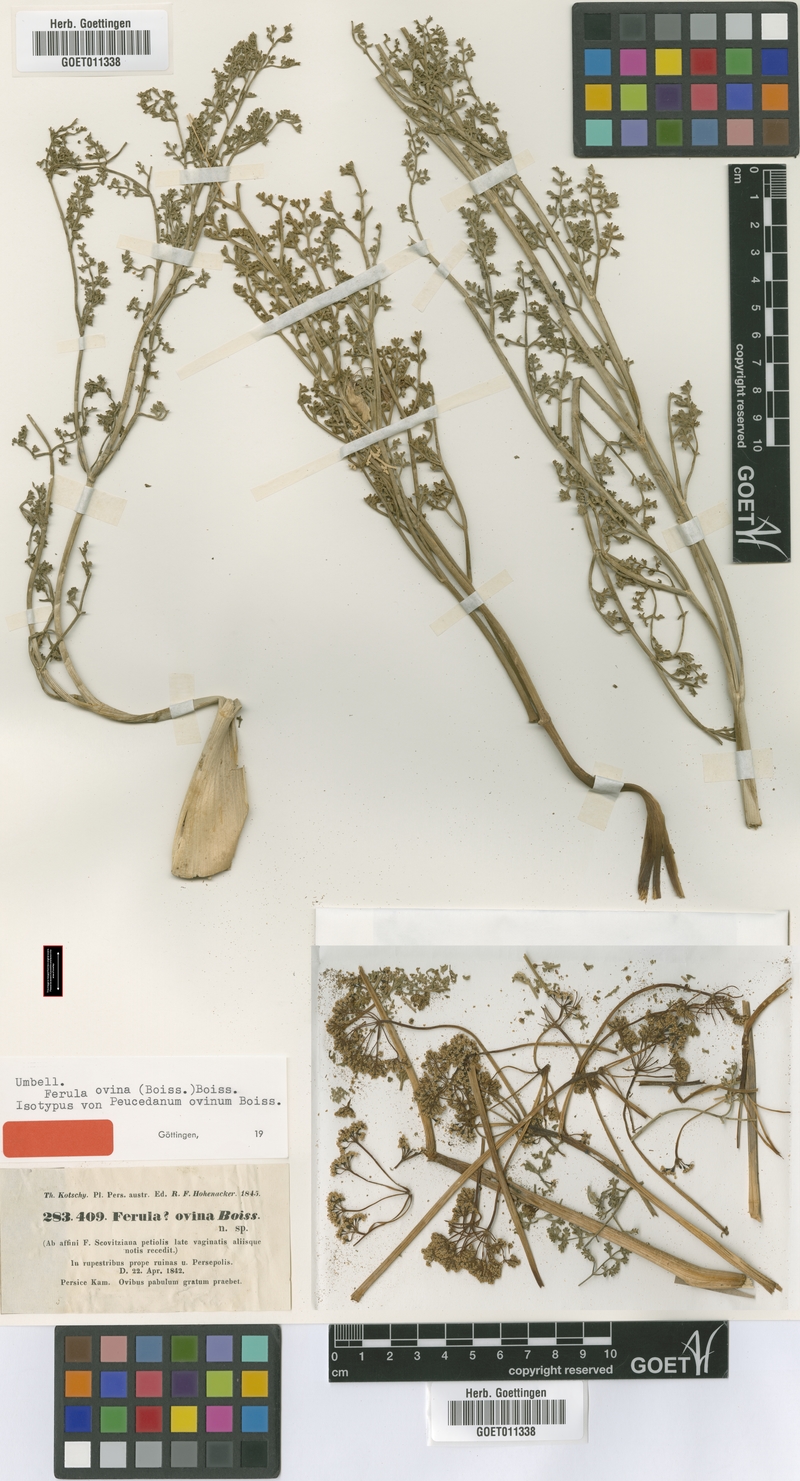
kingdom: Plantae
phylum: Tracheophyta
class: Magnoliopsida
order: Apiales
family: Apiaceae
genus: Ferula
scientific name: Ferula ovina
